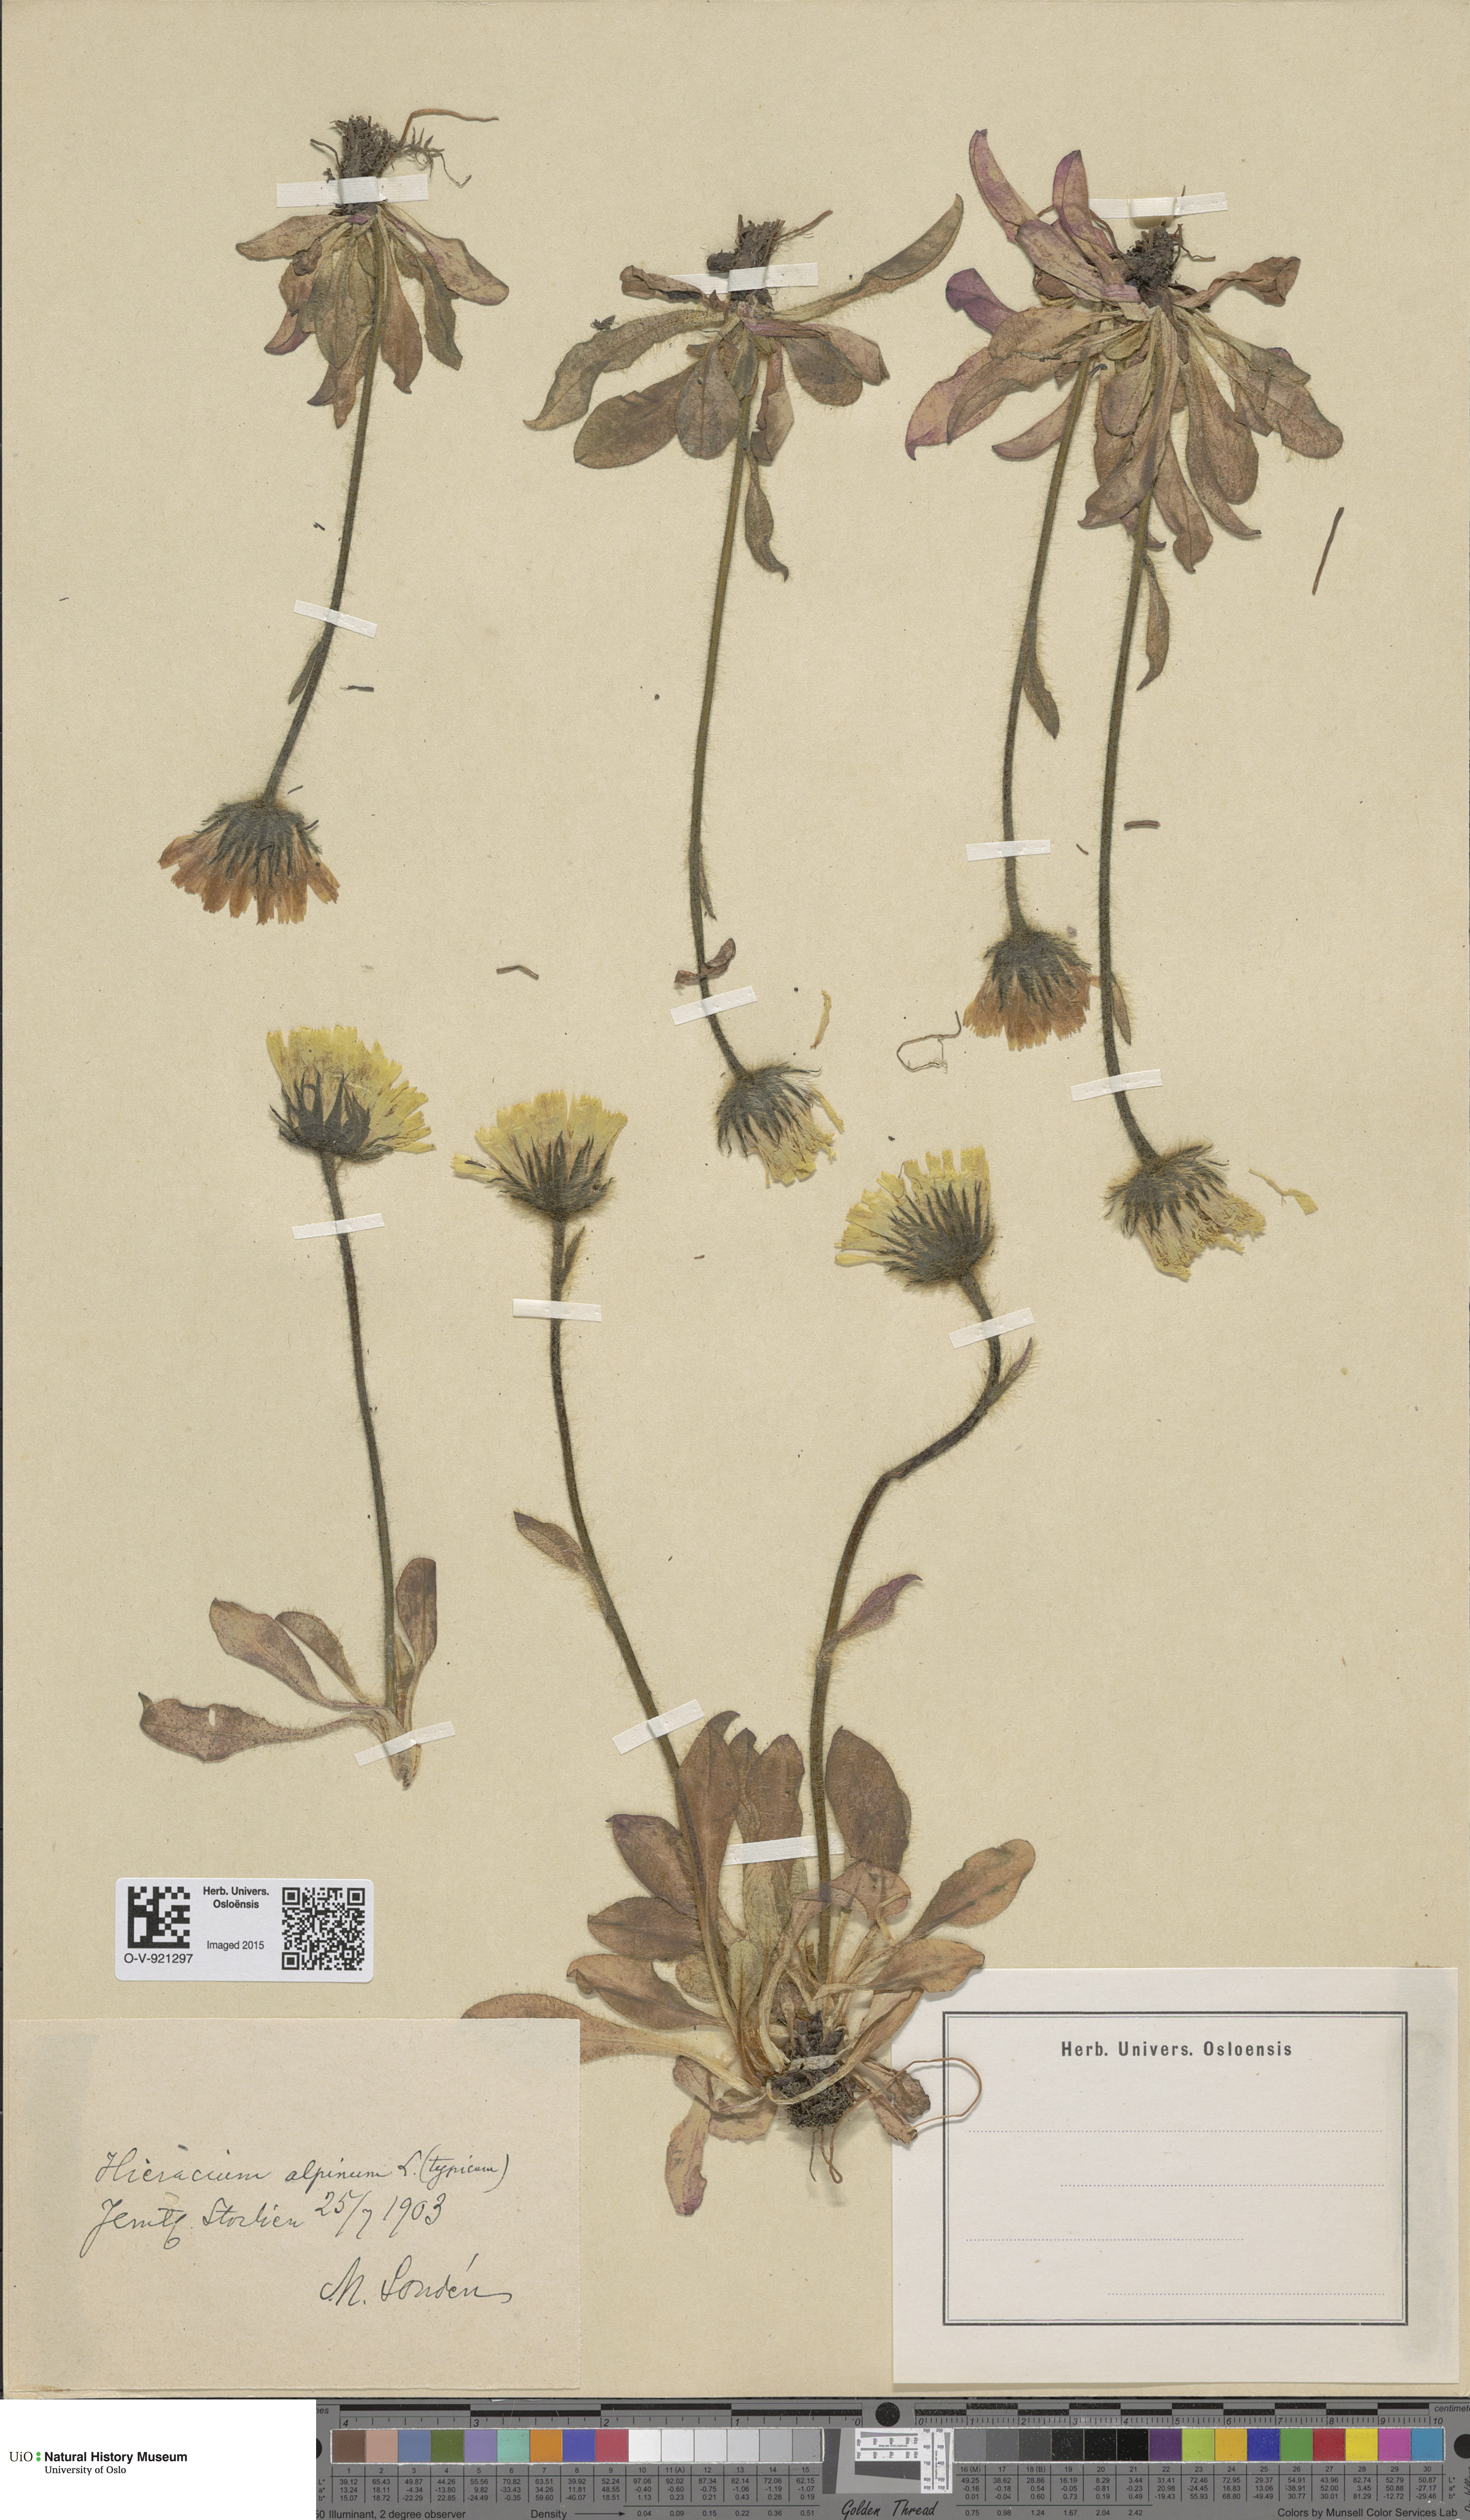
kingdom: Plantae
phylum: Tracheophyta
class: Magnoliopsida
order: Asterales
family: Asteraceae
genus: Hieracium
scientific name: Hieracium alpinum
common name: Alpine hawkweed
